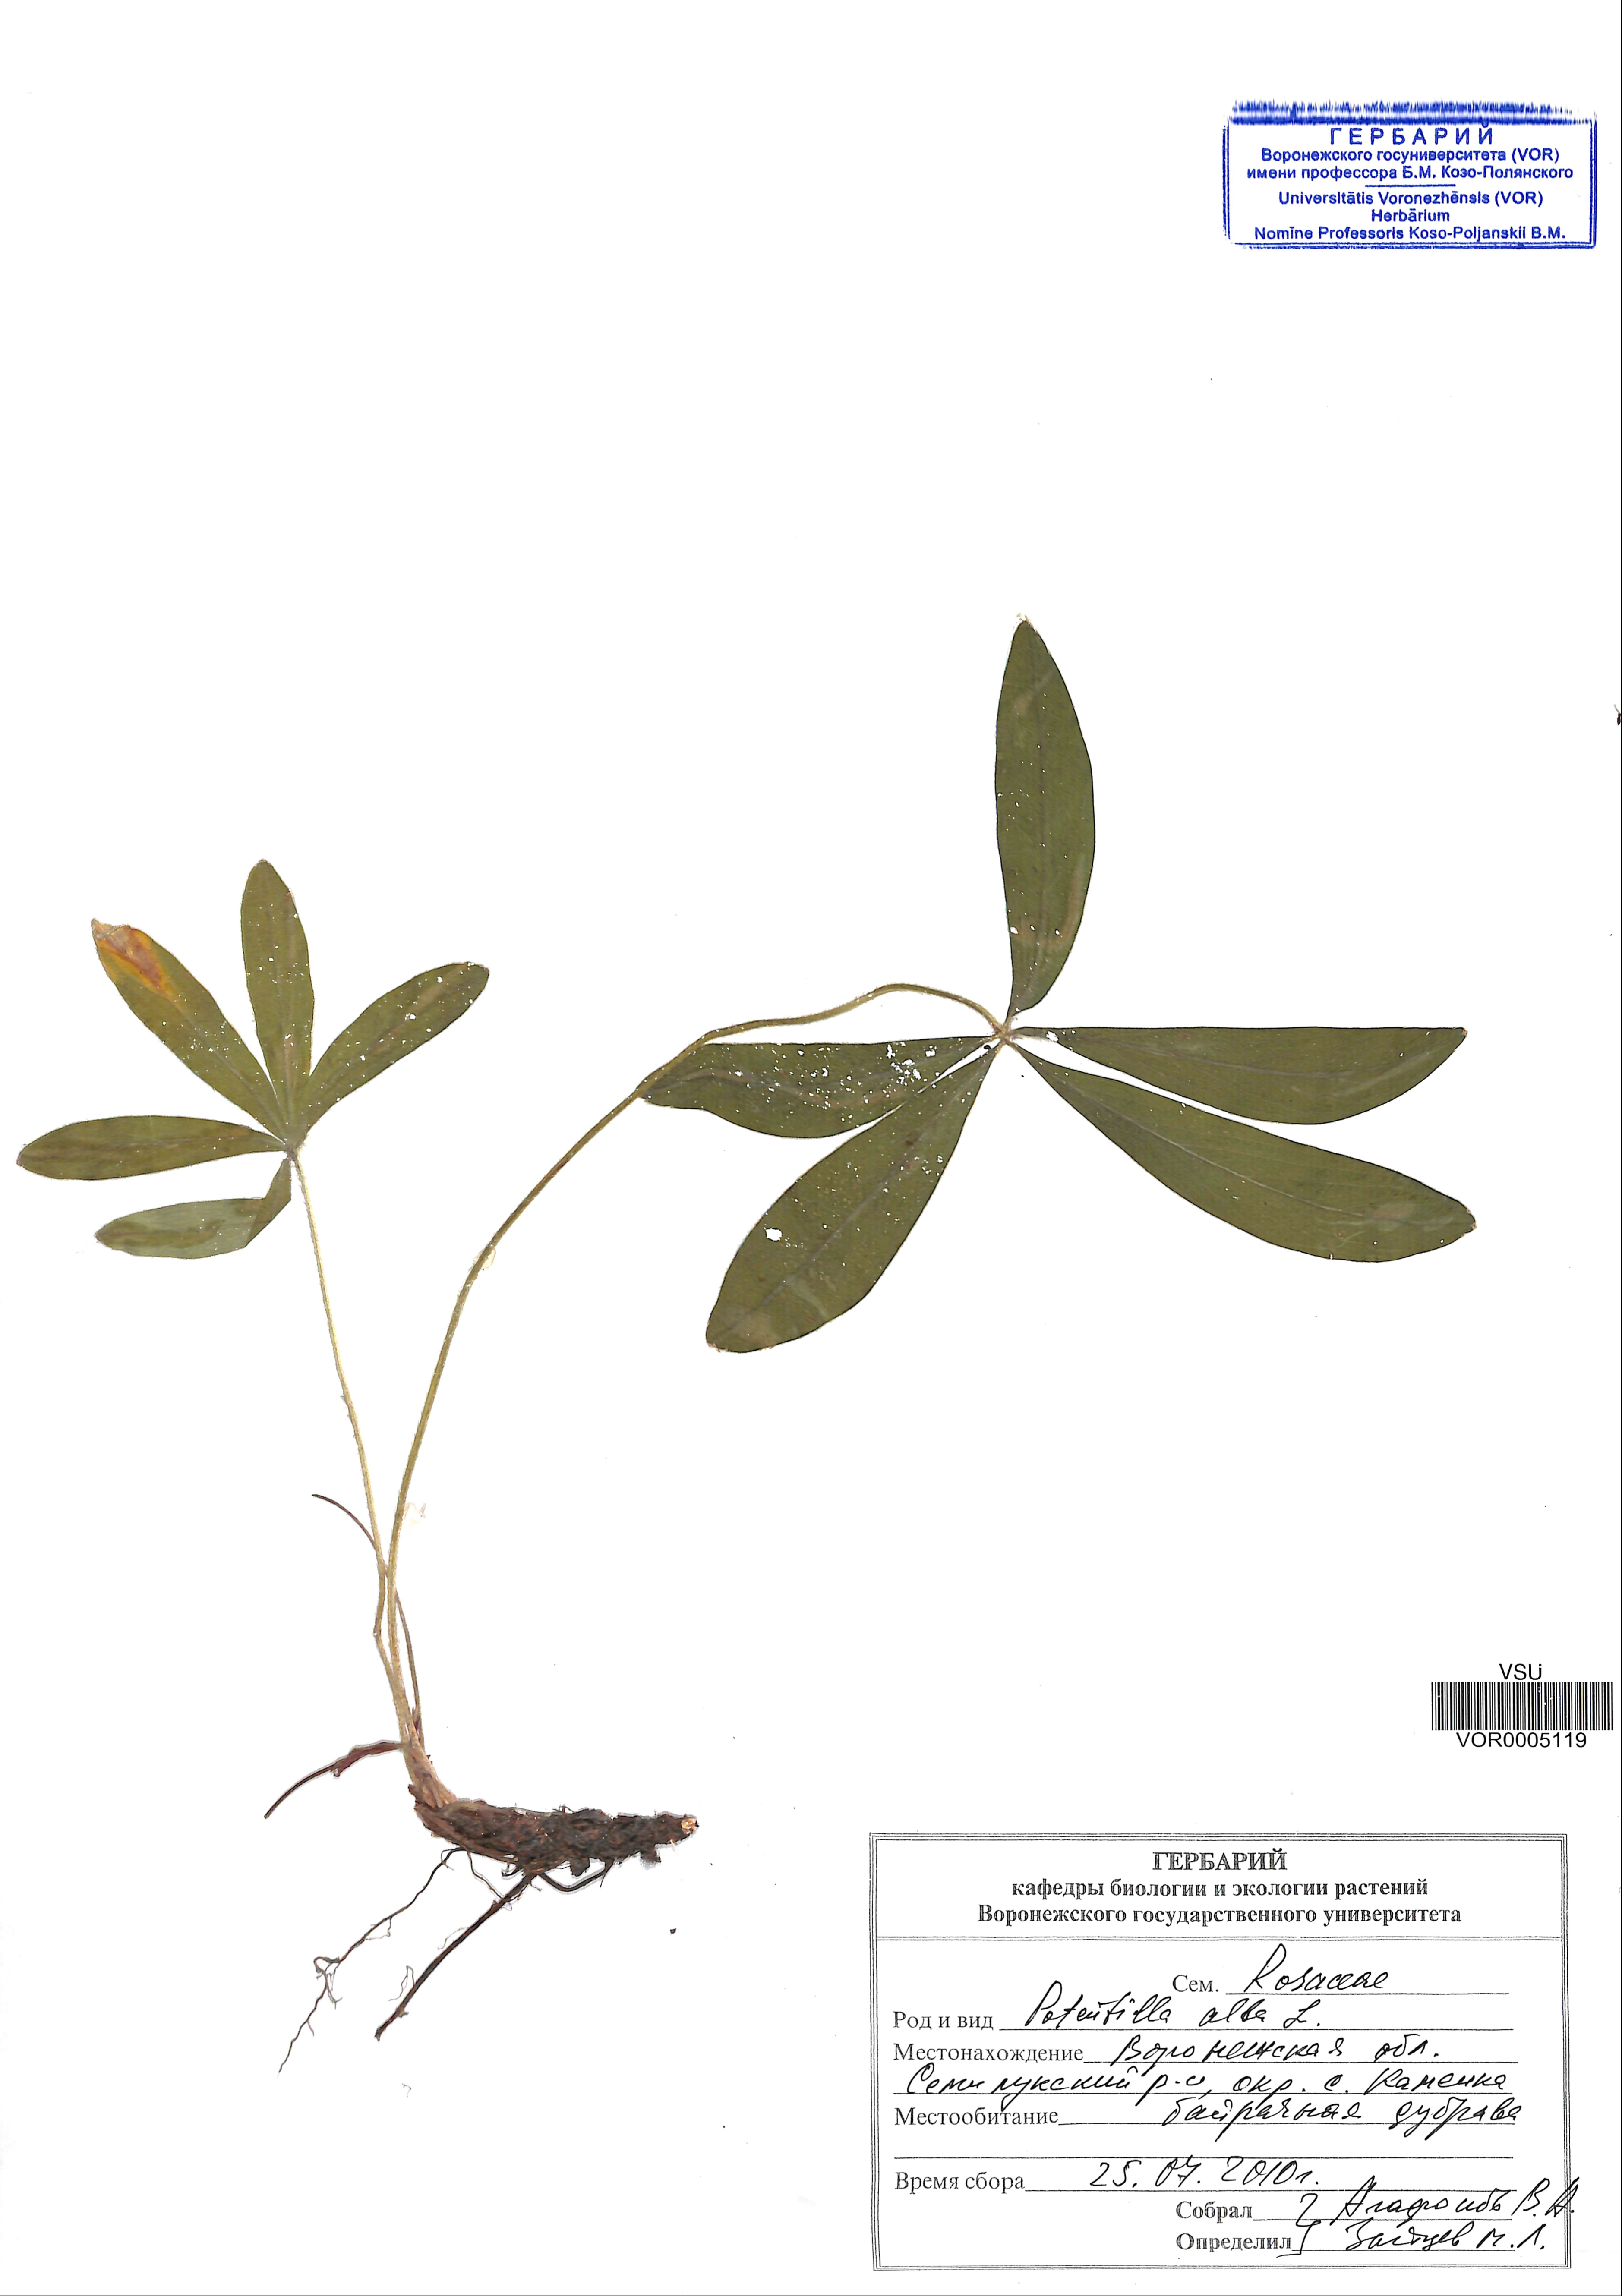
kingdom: Plantae
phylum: Tracheophyta
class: Magnoliopsida
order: Rosales
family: Rosaceae
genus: Potentilla
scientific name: Potentilla alba
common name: White cinquefoil
